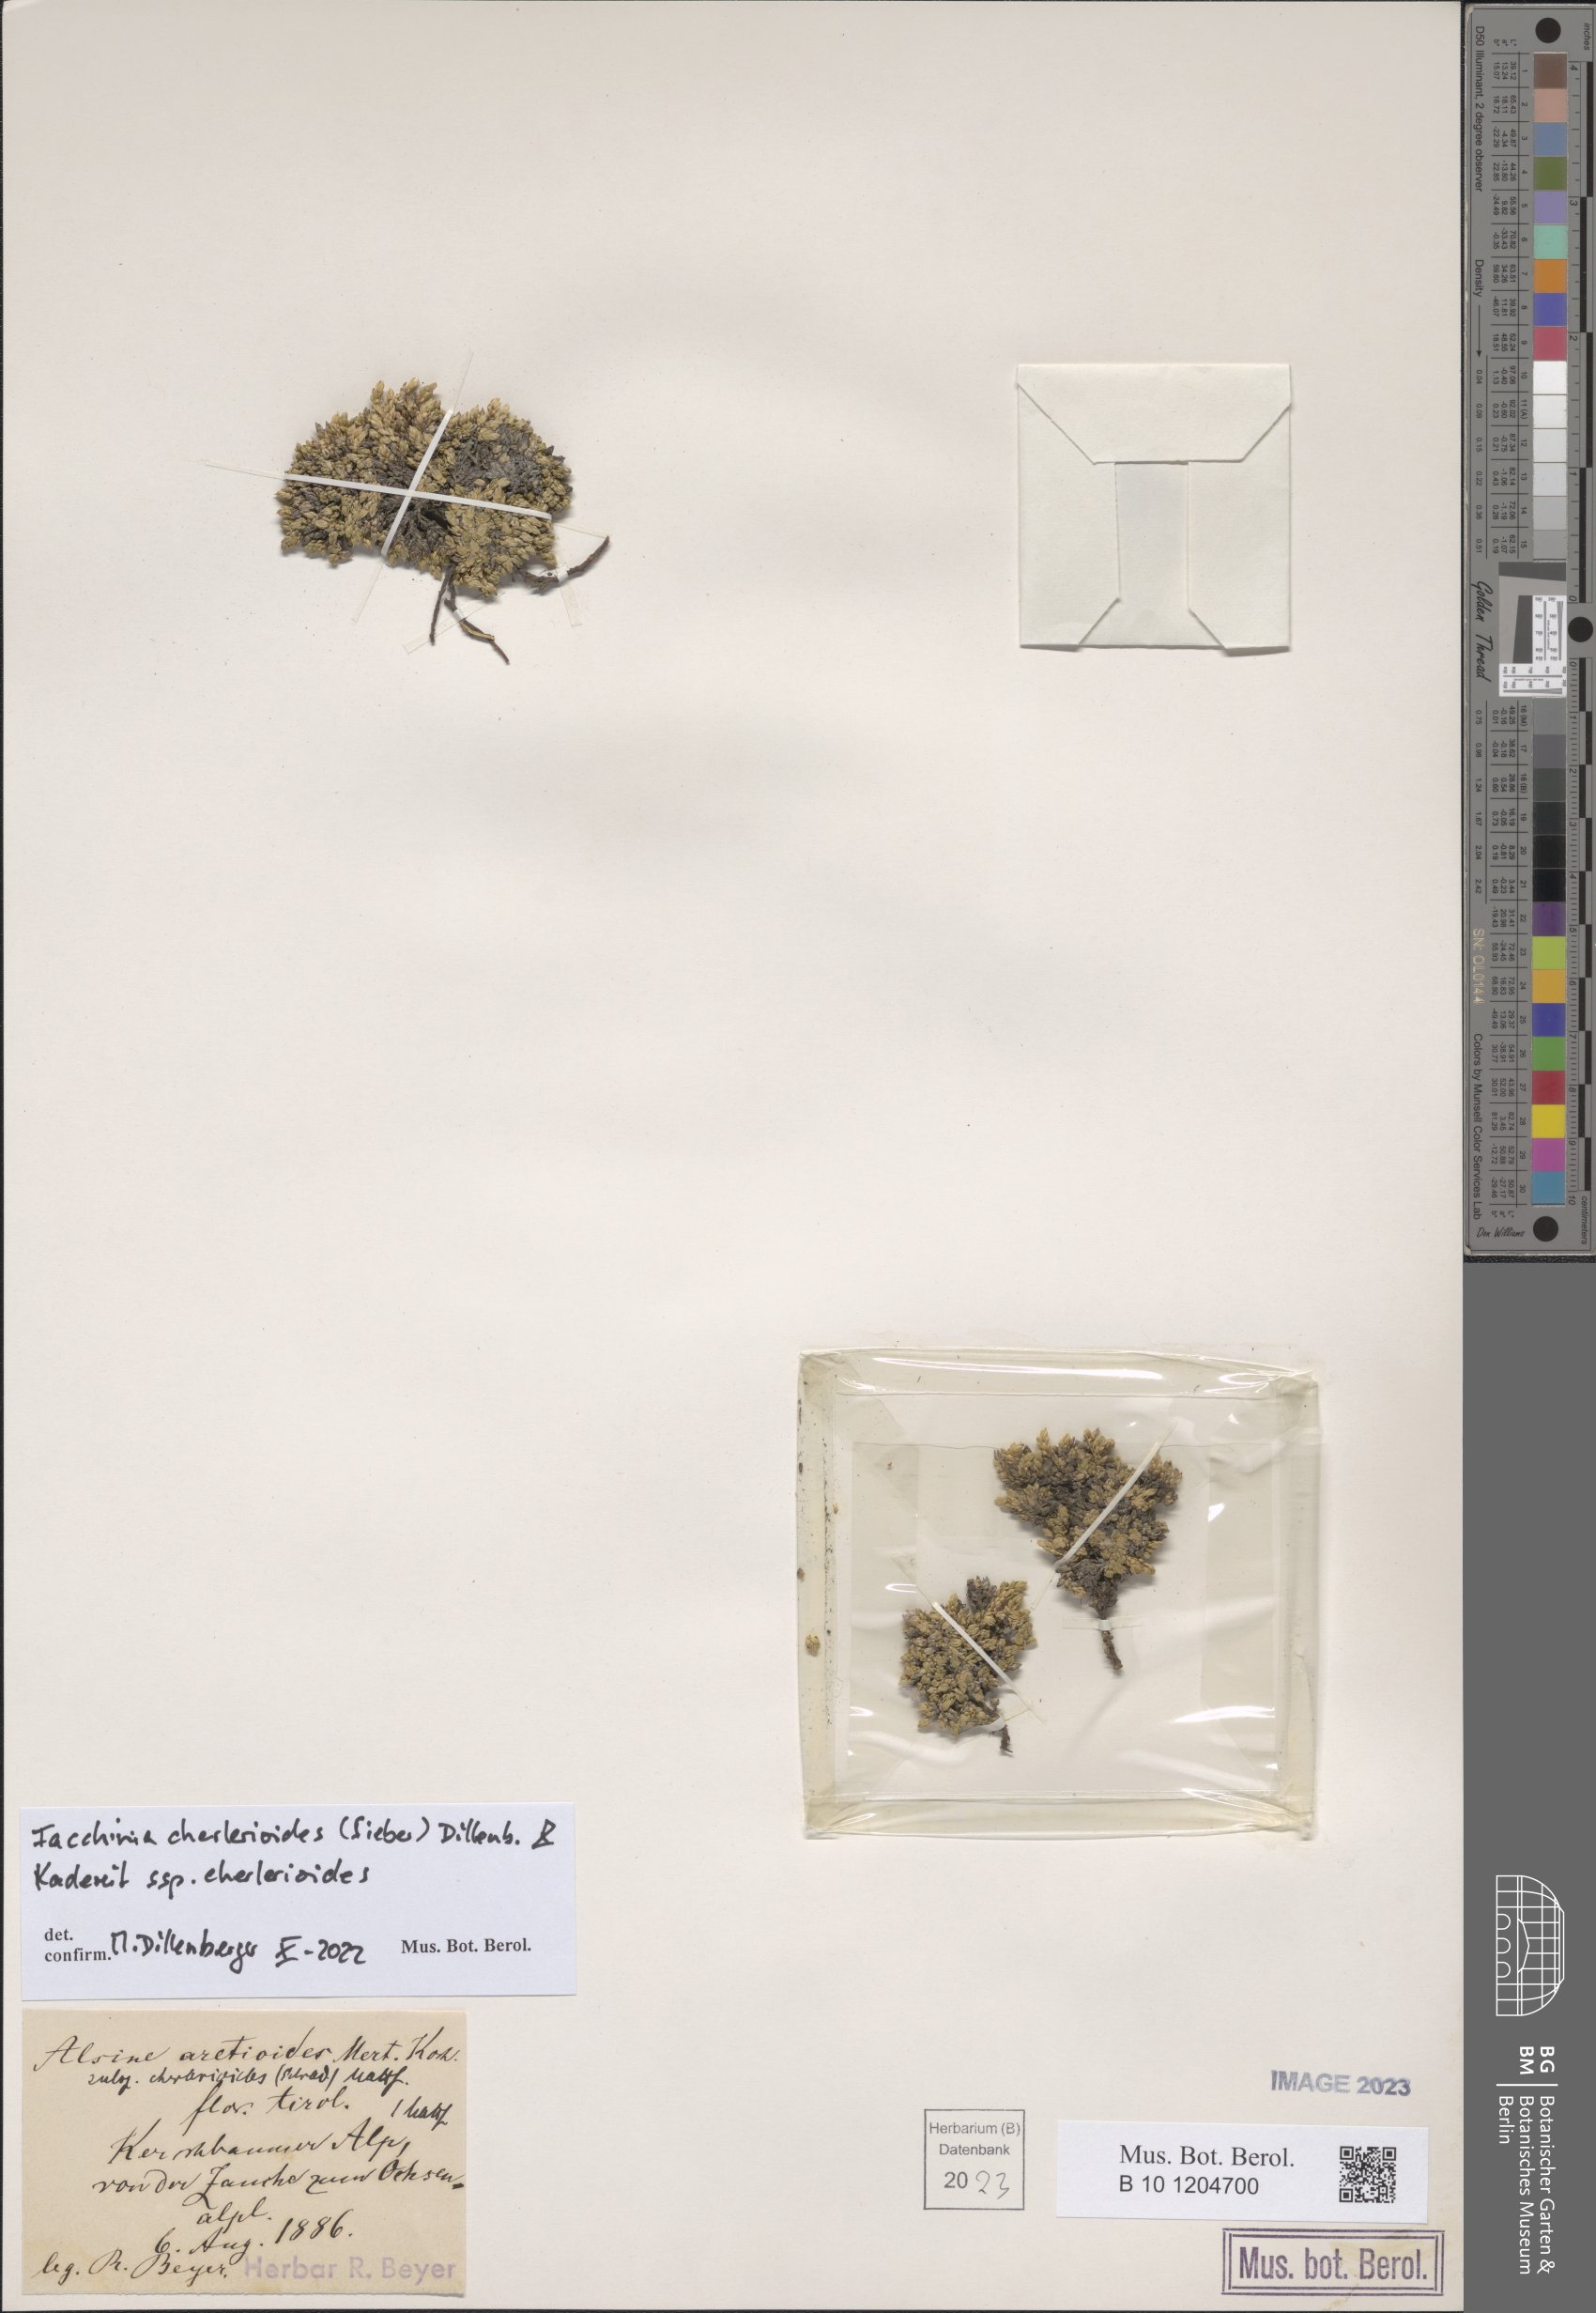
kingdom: Plantae
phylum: Tracheophyta
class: Magnoliopsida
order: Caryophyllales
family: Caryophyllaceae
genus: Facchinia
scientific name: Facchinia cherlerioides
